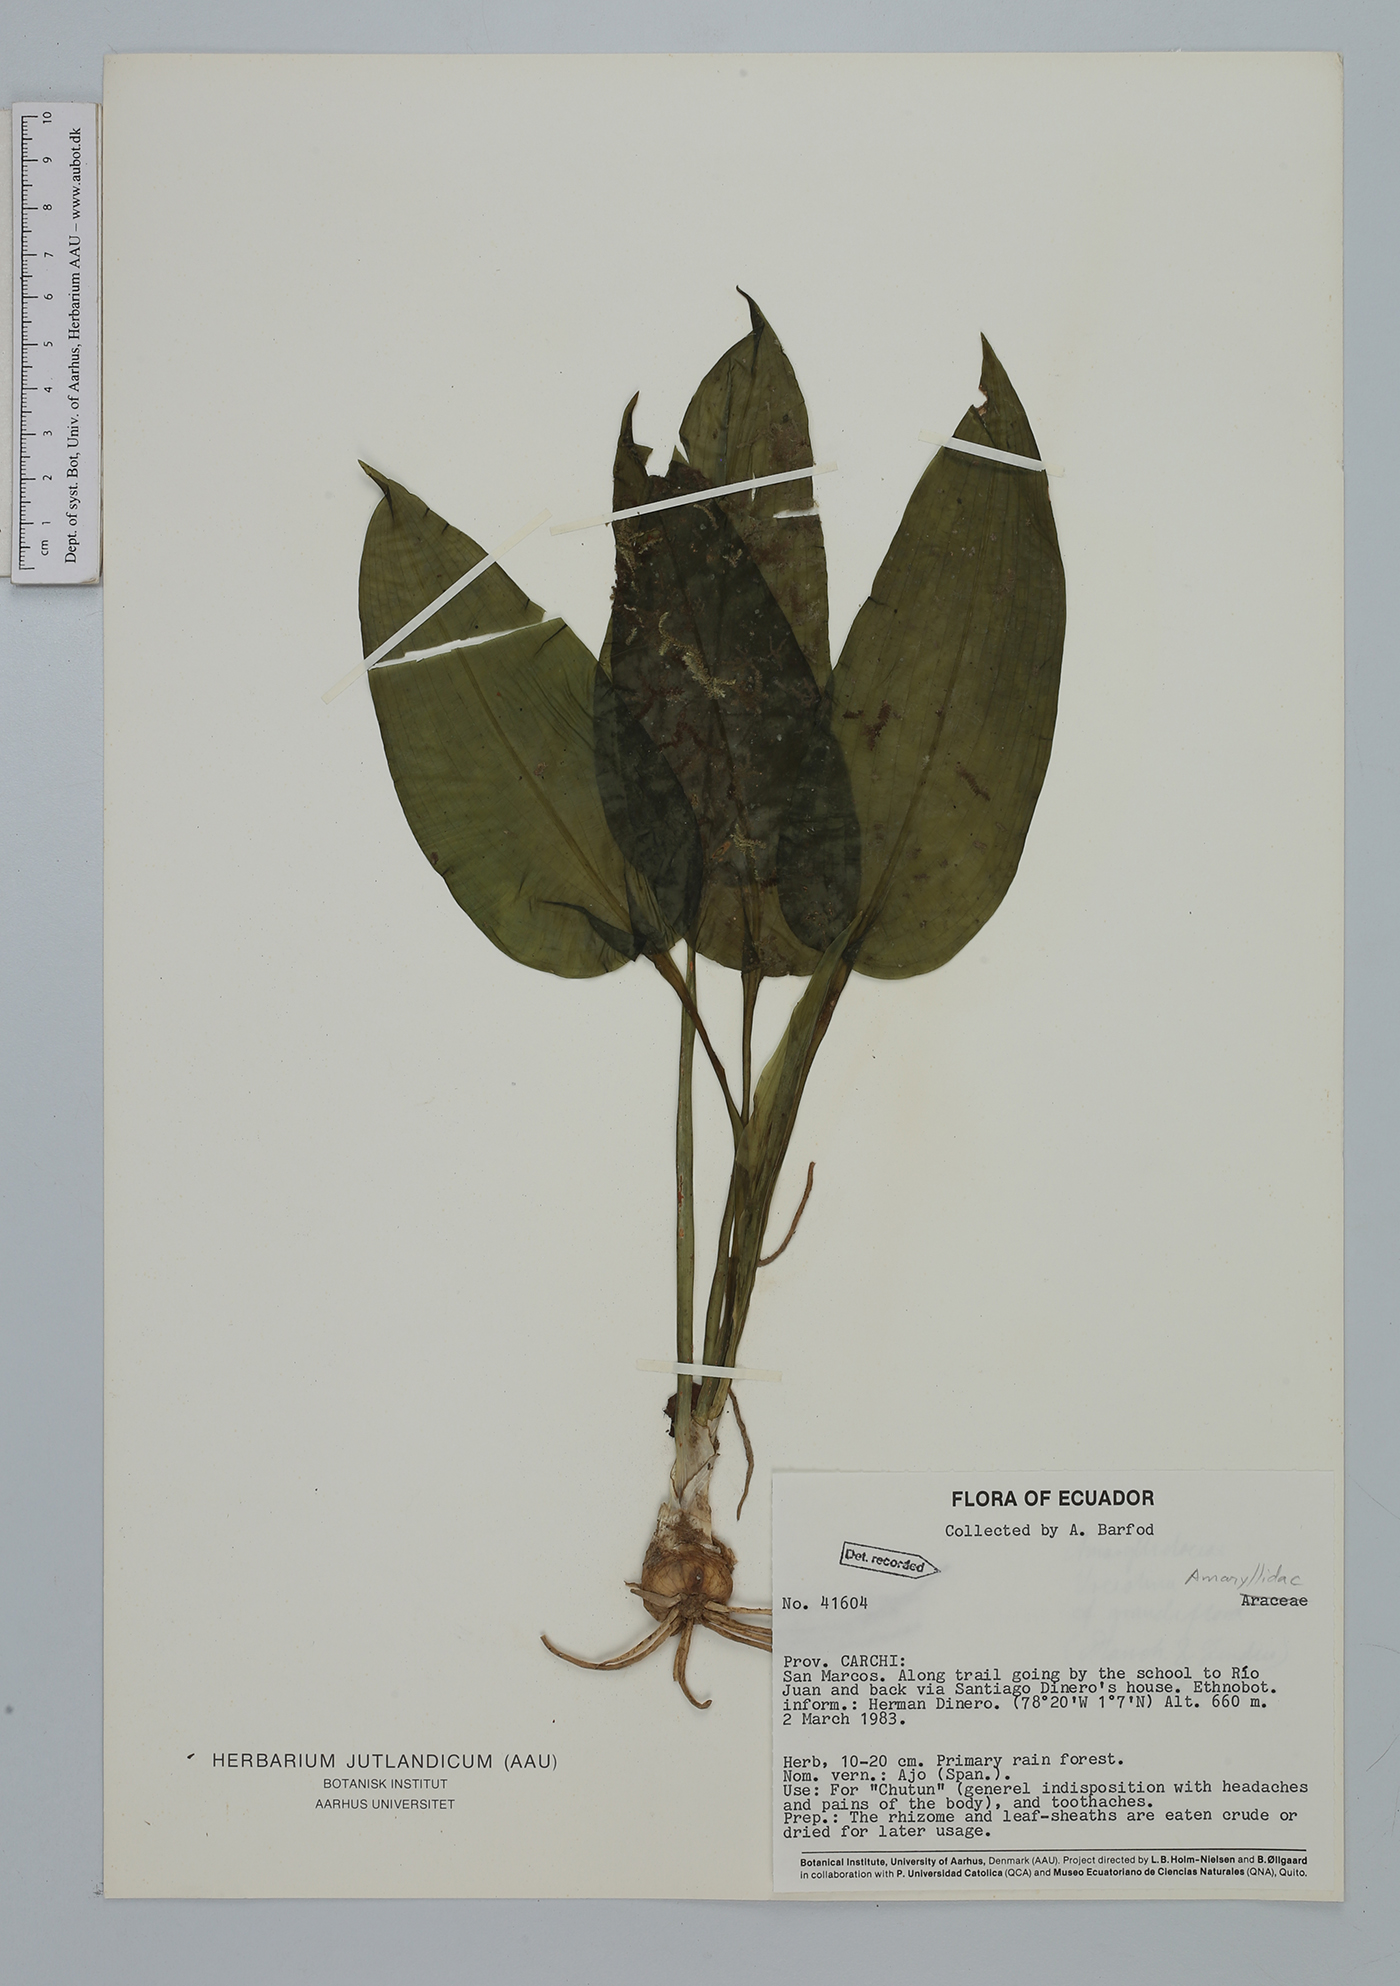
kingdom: Plantae
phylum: Tracheophyta
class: Liliopsida
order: Asparagales
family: Amaryllidaceae
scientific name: Amaryllidaceae
